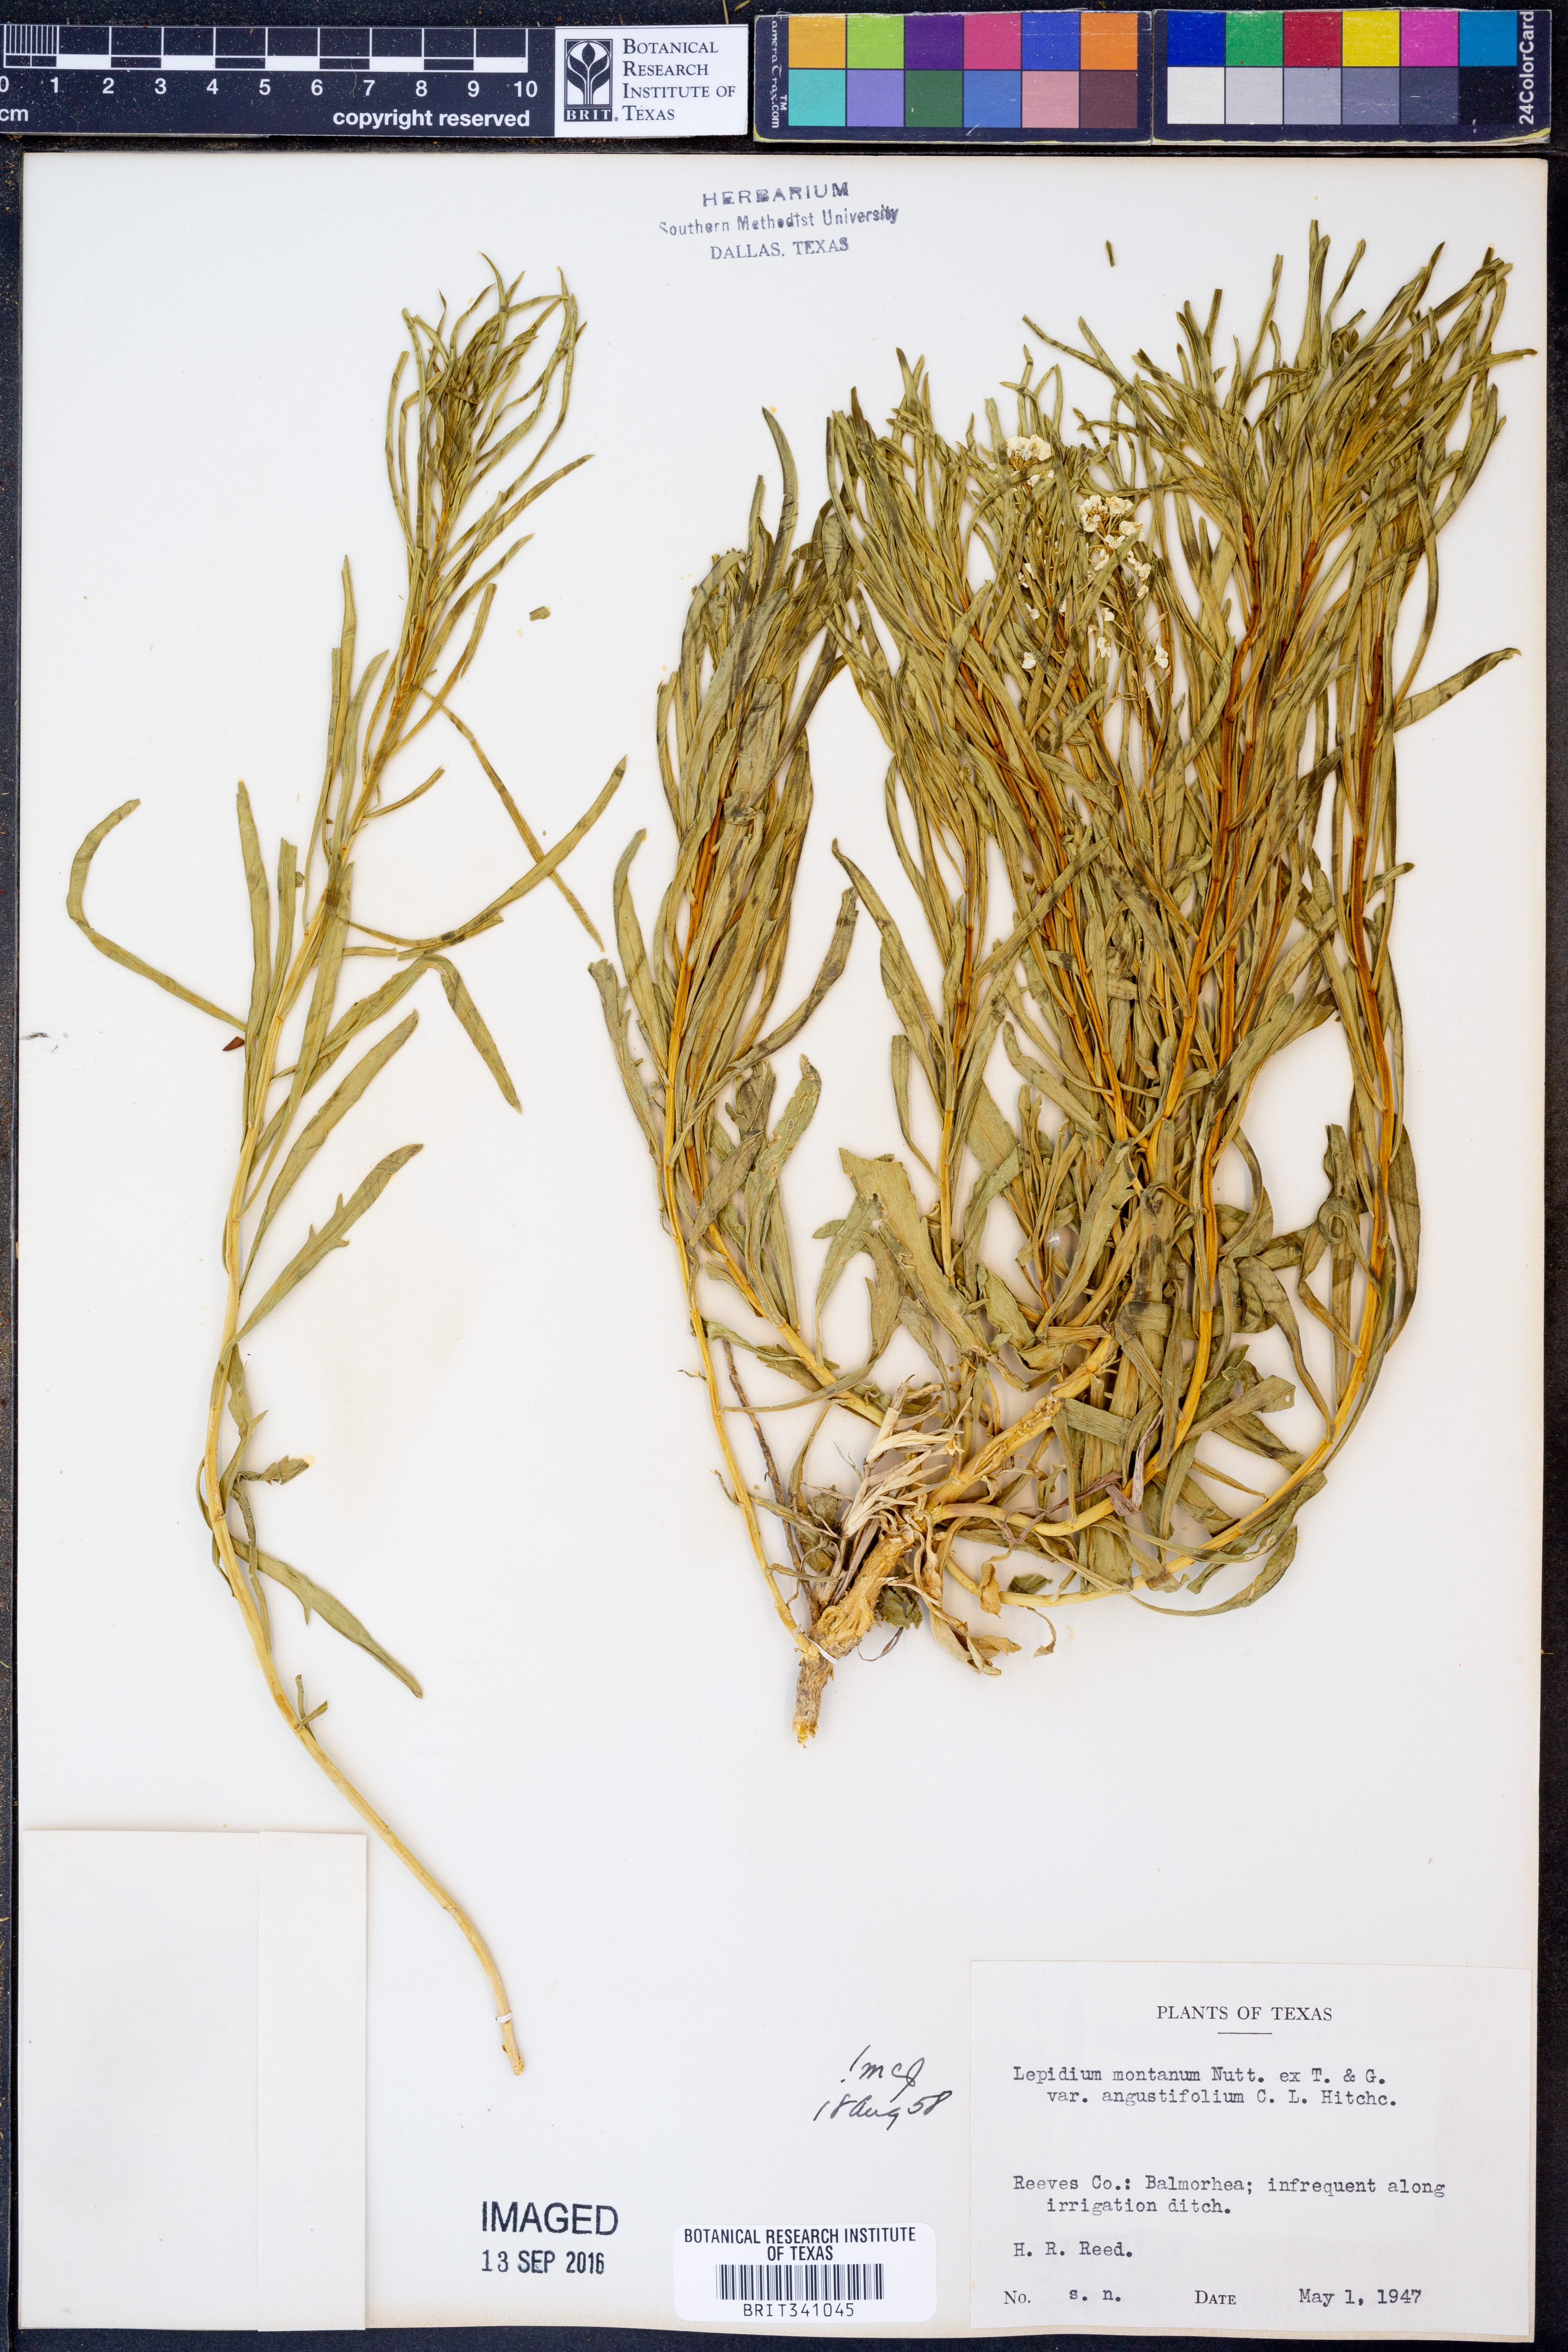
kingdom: Plantae
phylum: Tracheophyta
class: Magnoliopsida
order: Brassicales
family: Brassicaceae
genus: Lepidium
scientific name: Lepidium alyssoides
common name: Mesa pepperweed
